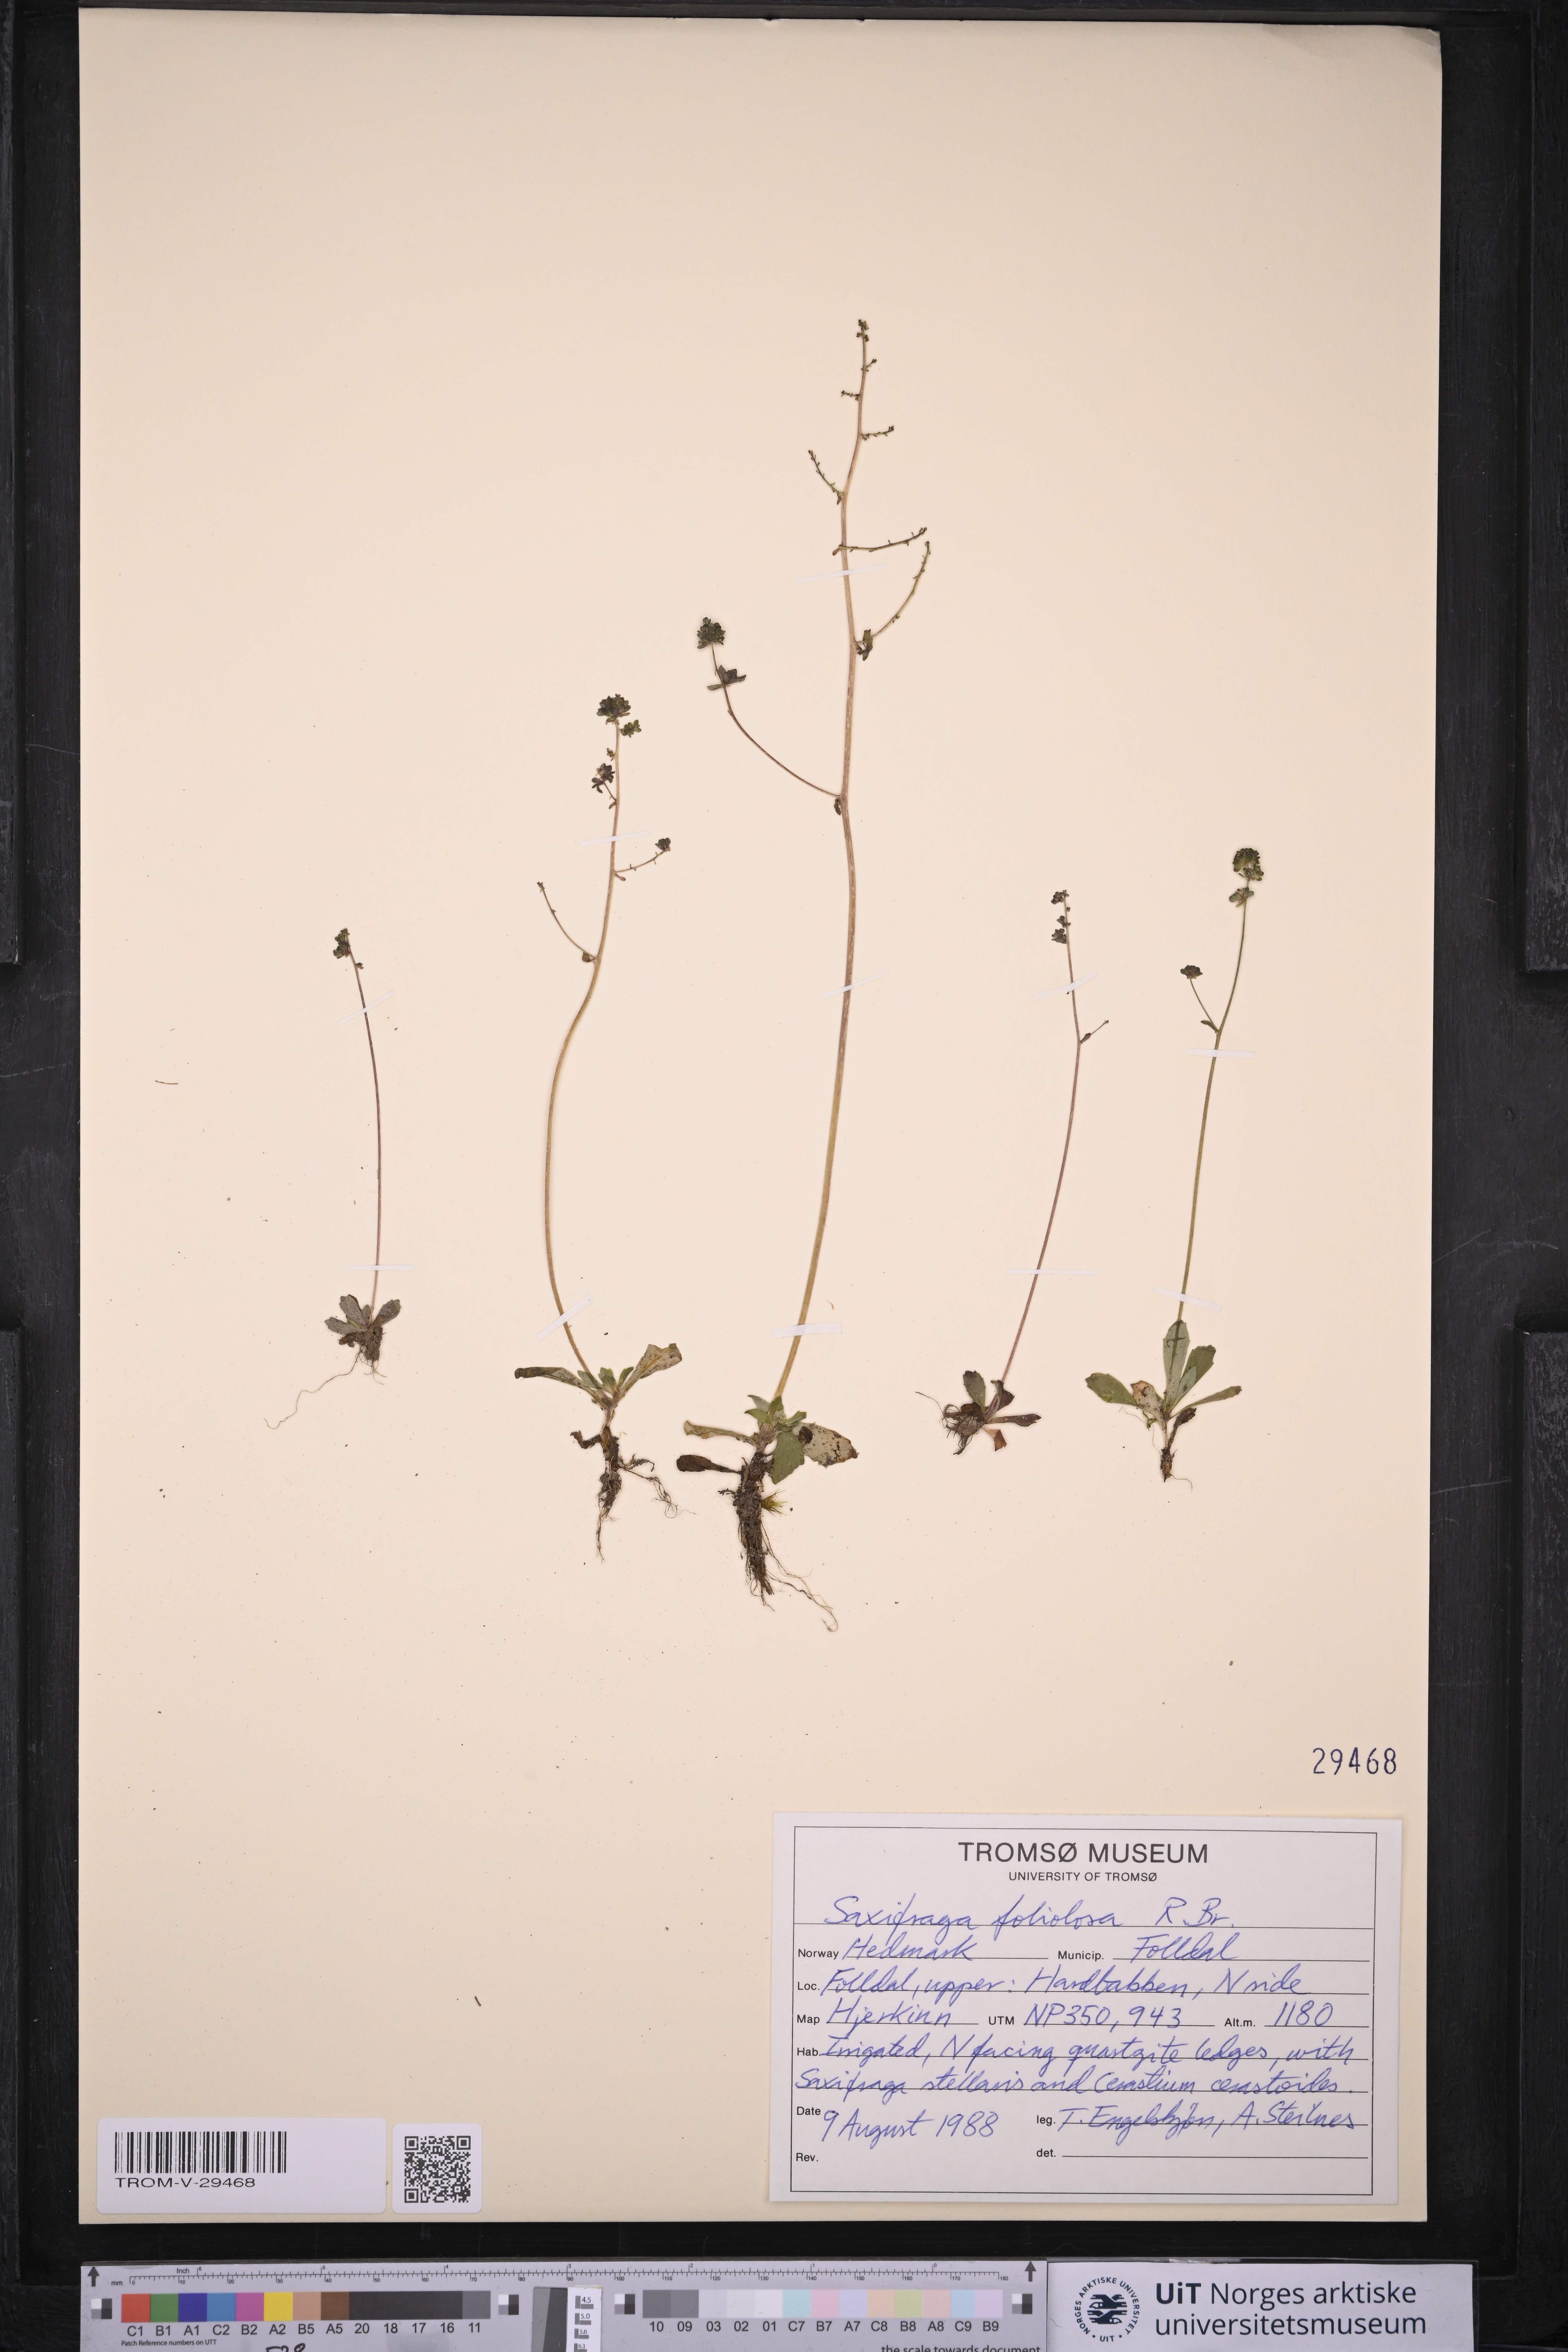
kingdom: Plantae
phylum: Tracheophyta
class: Magnoliopsida
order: Saxifragales
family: Saxifragaceae
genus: Micranthes
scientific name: Micranthes foliolosa
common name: Leafystem saxifrage
